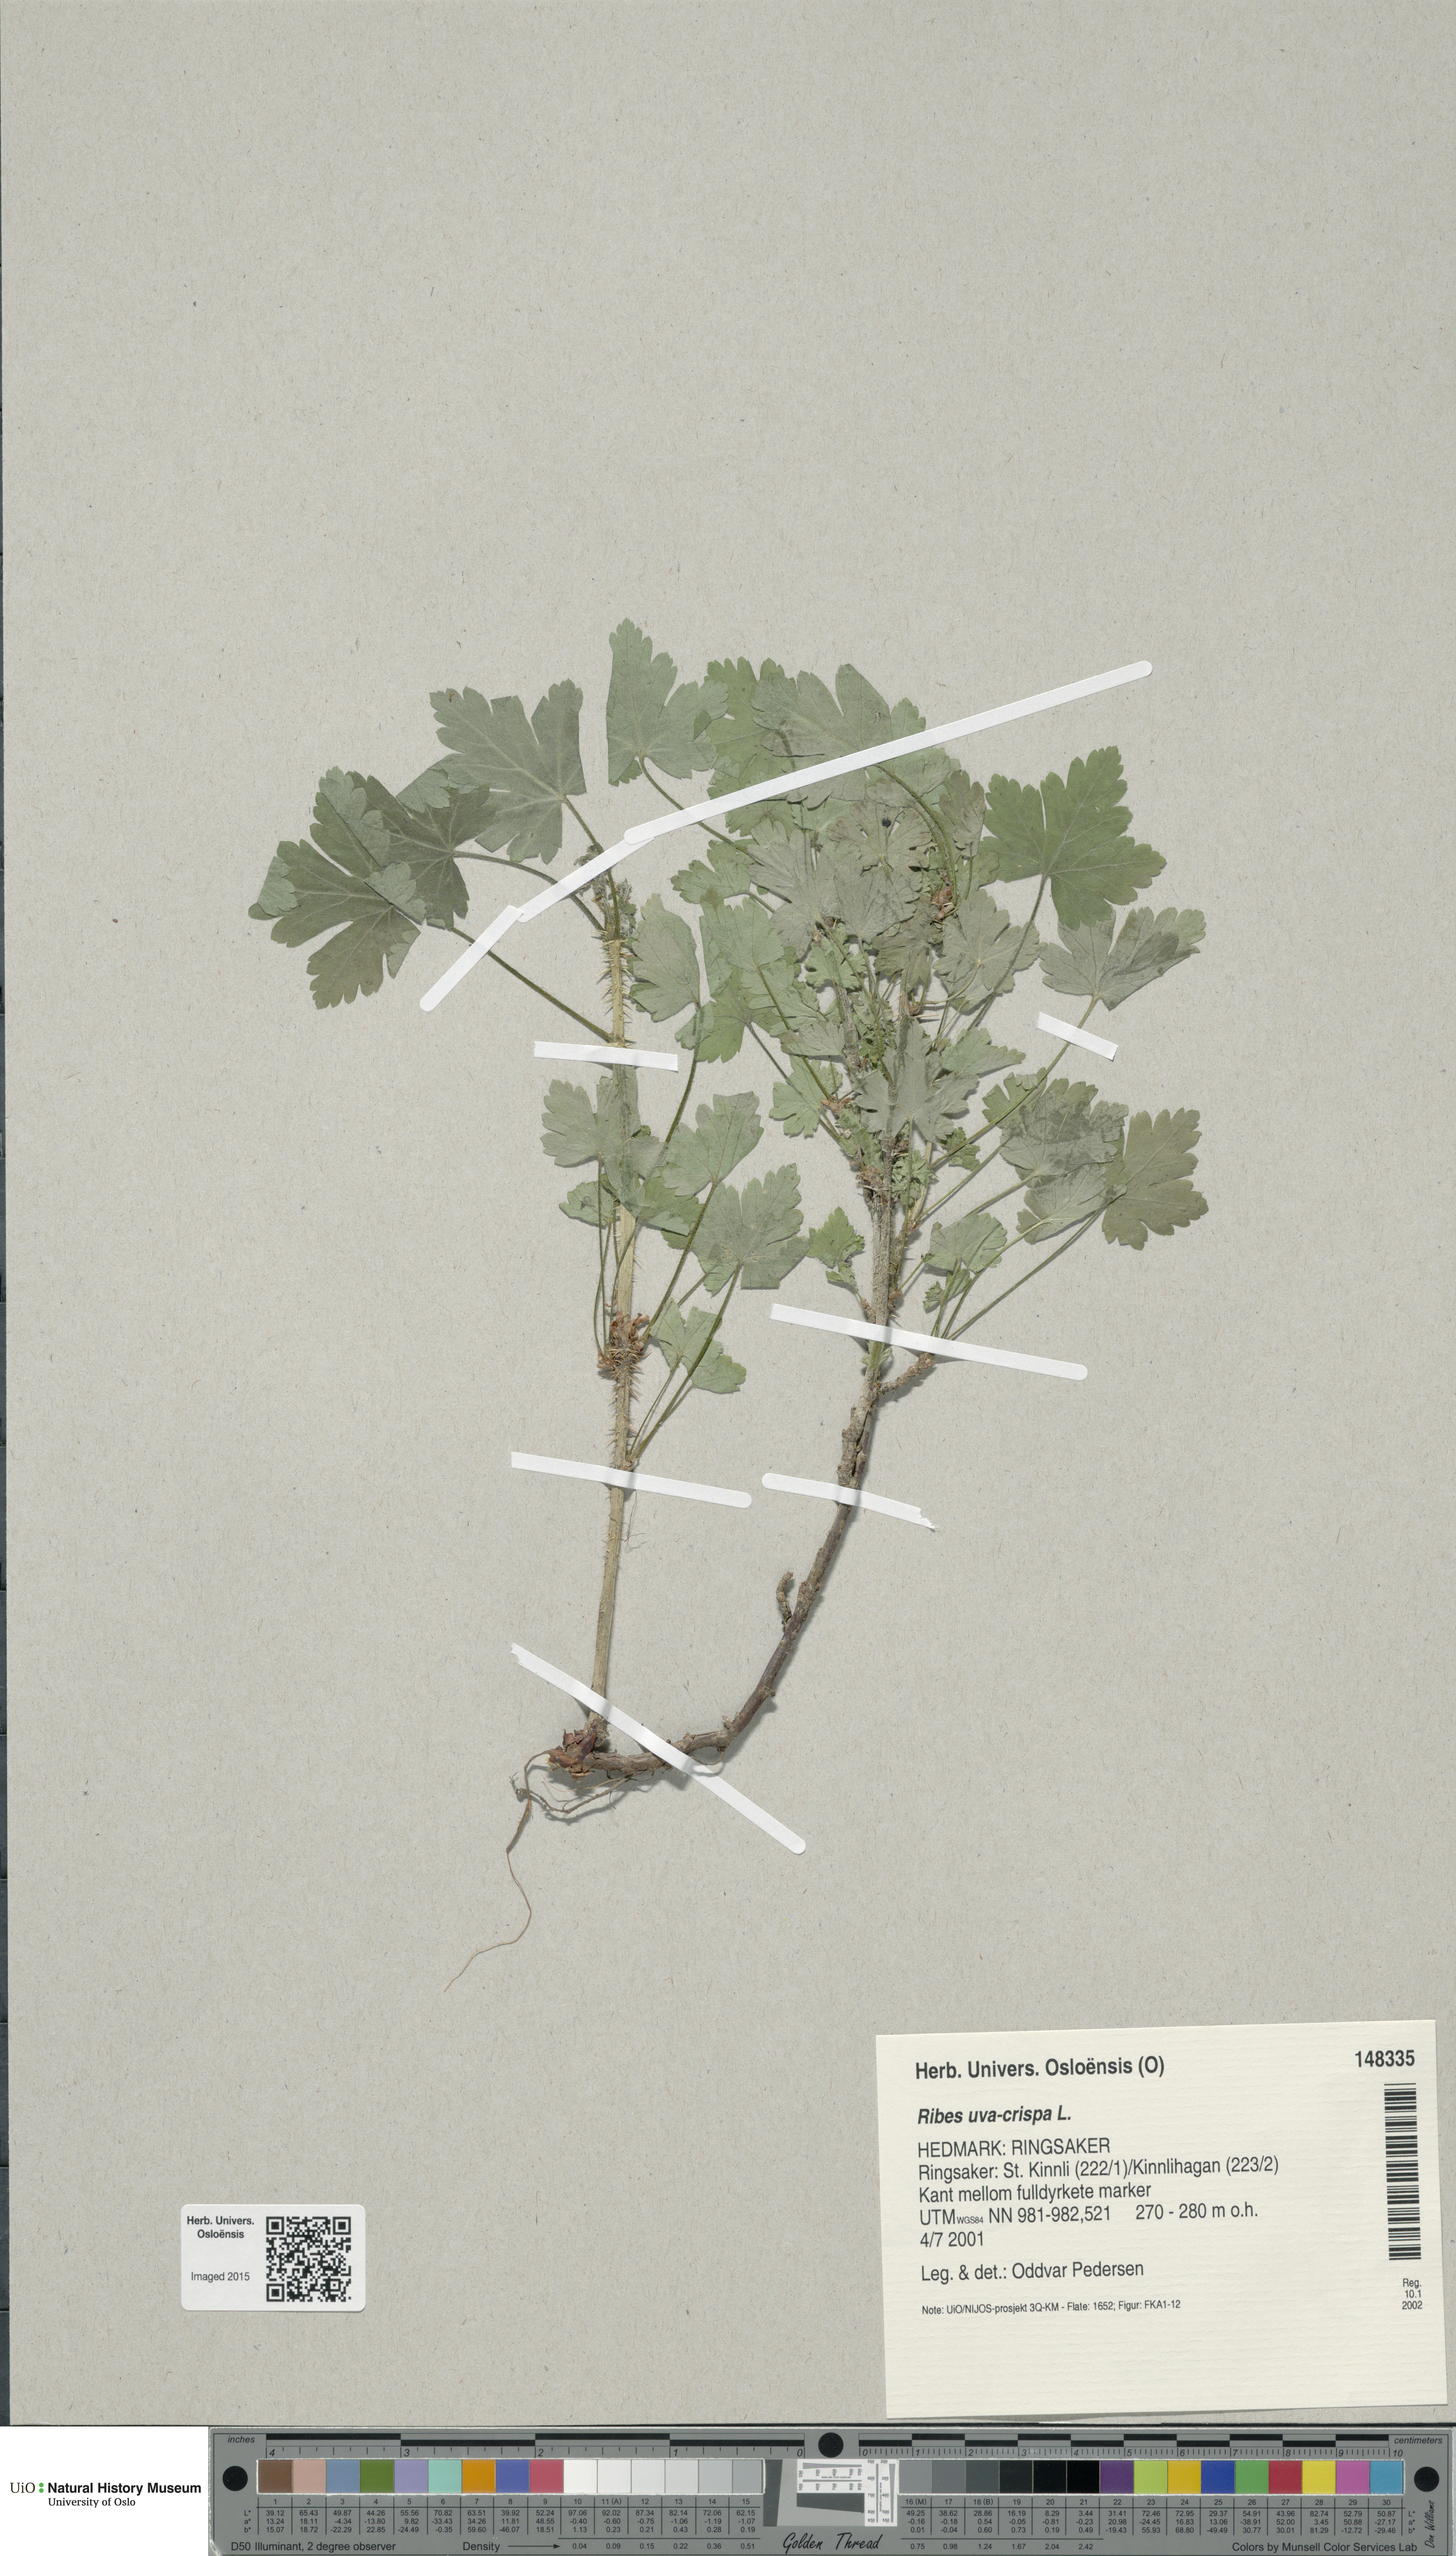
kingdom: Plantae
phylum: Tracheophyta
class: Magnoliopsida
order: Saxifragales
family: Grossulariaceae
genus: Ribes
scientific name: Ribes uva-crispa
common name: Gooseberry
